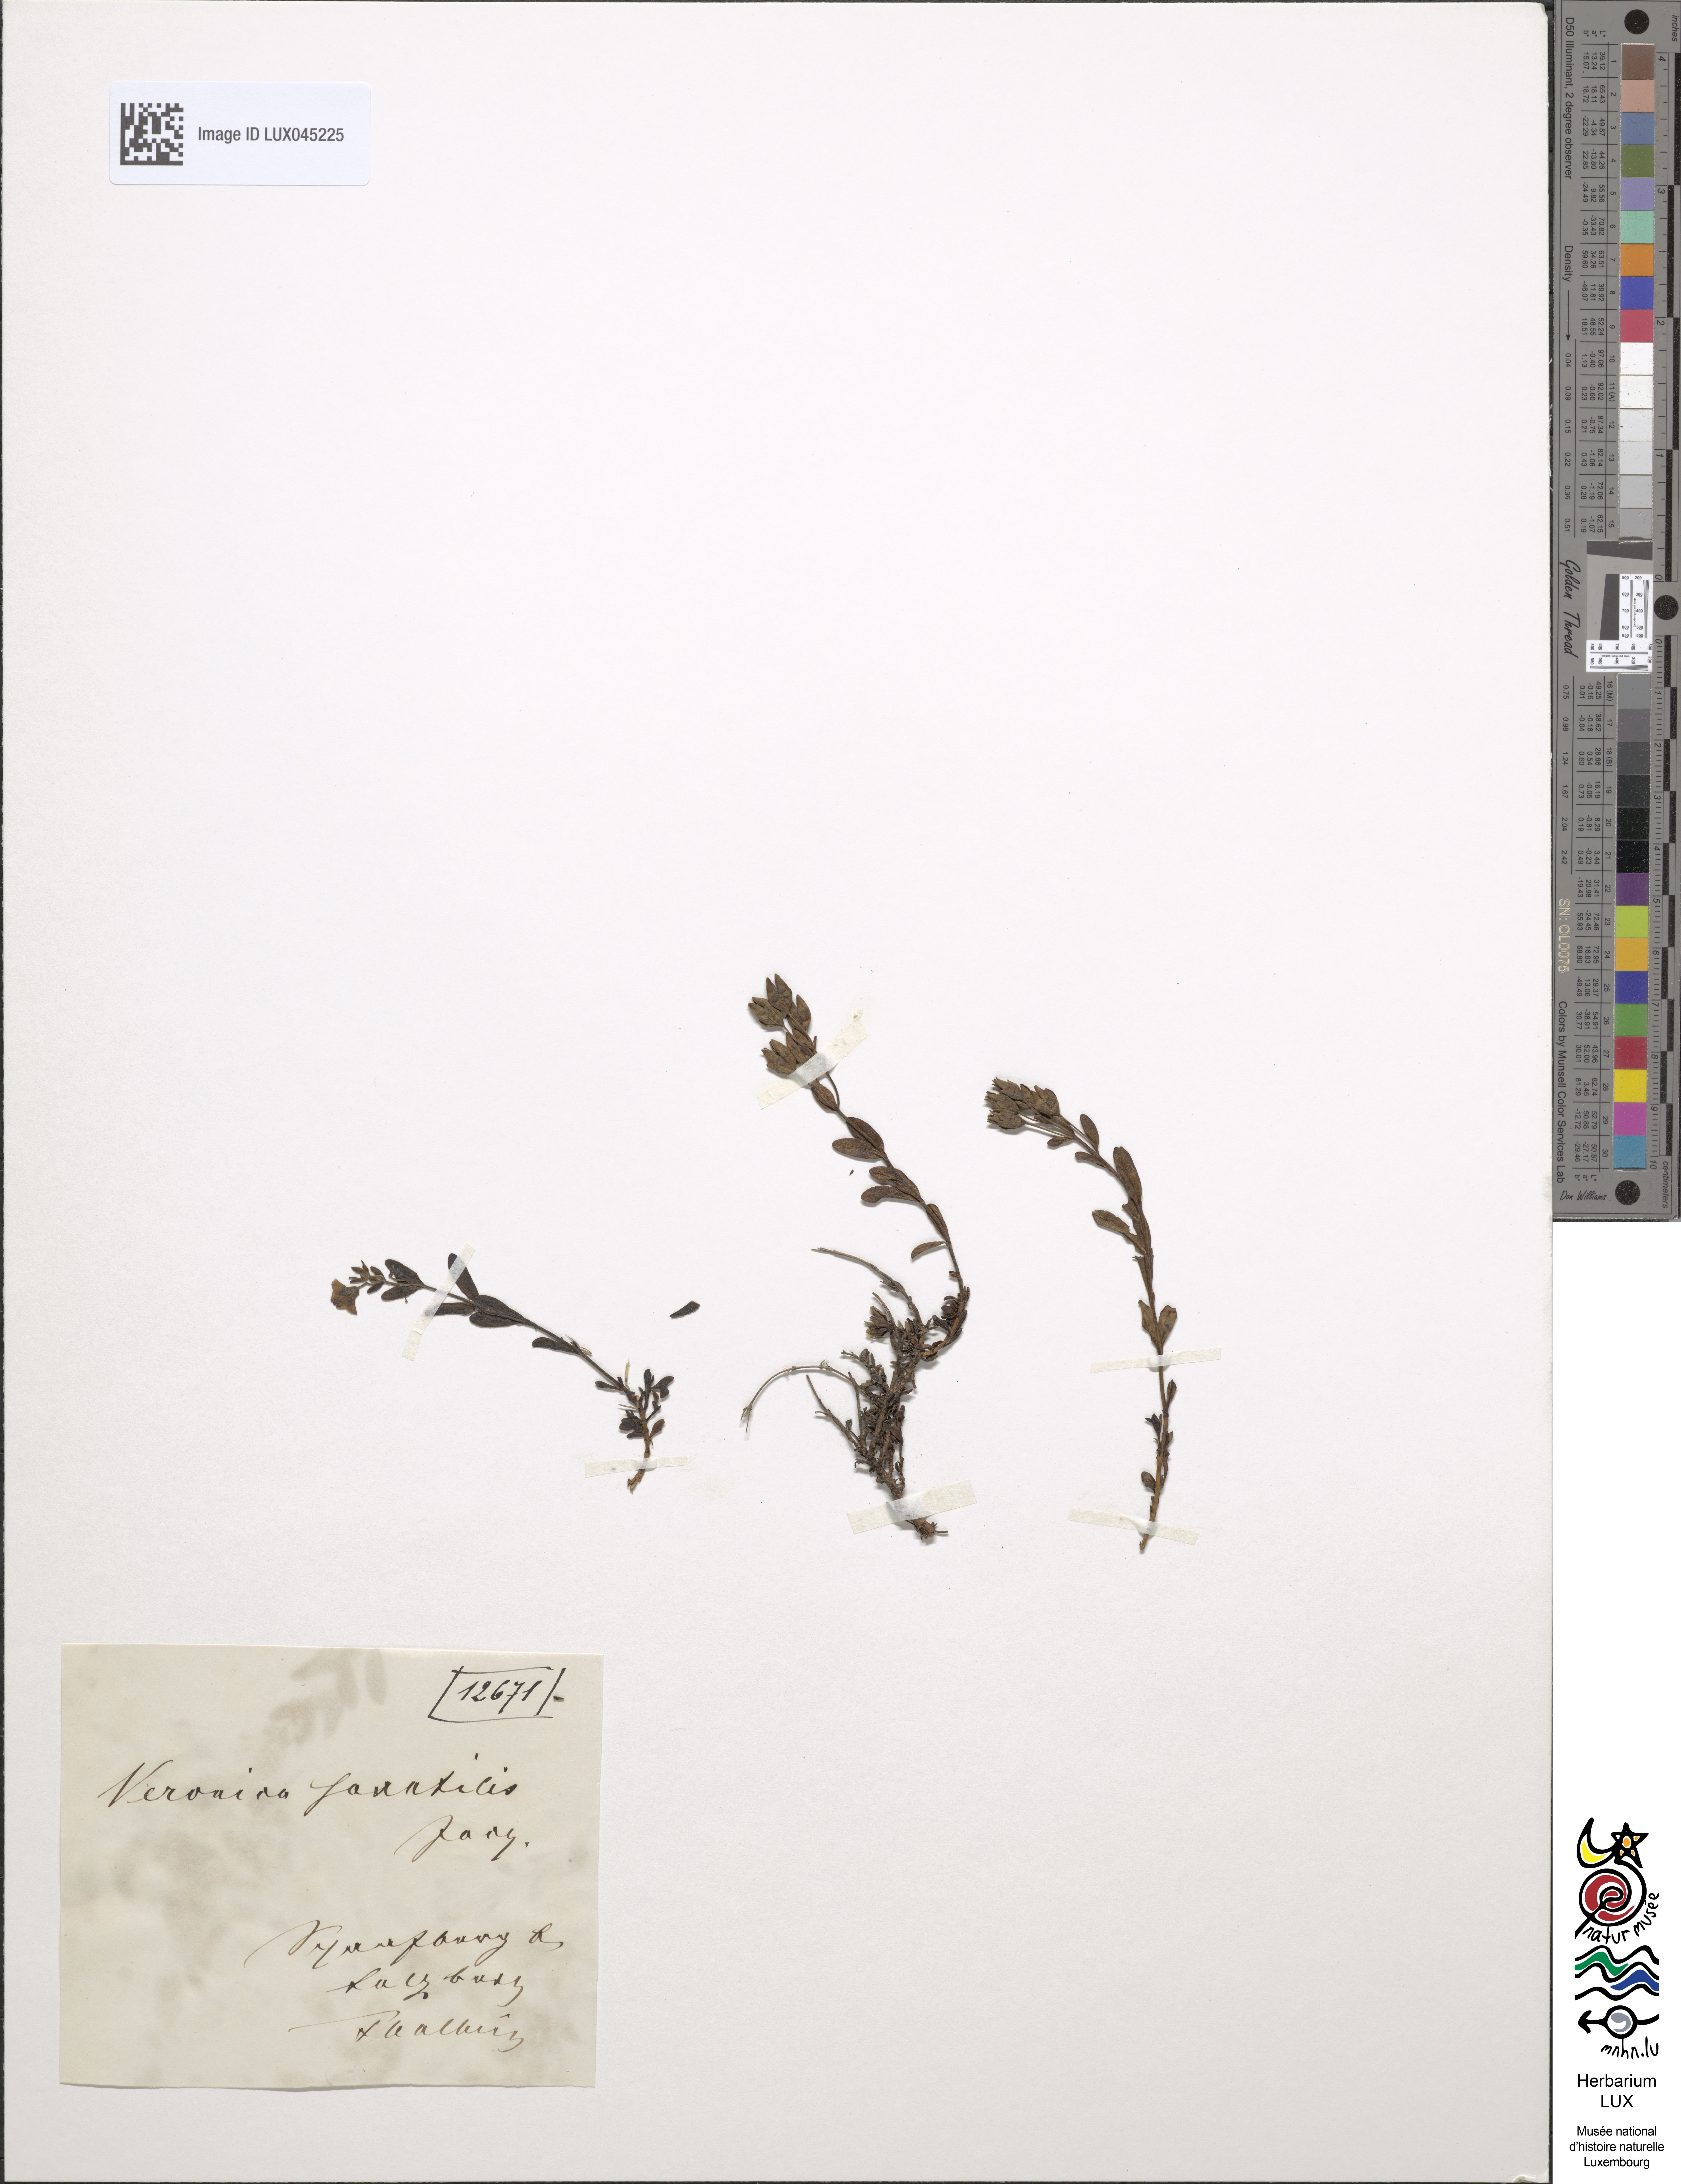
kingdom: Plantae
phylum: Tracheophyta
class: Magnoliopsida
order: Lamiales
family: Plantaginaceae
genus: Veronica
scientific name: Veronica fruticans
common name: Rock speedwell
